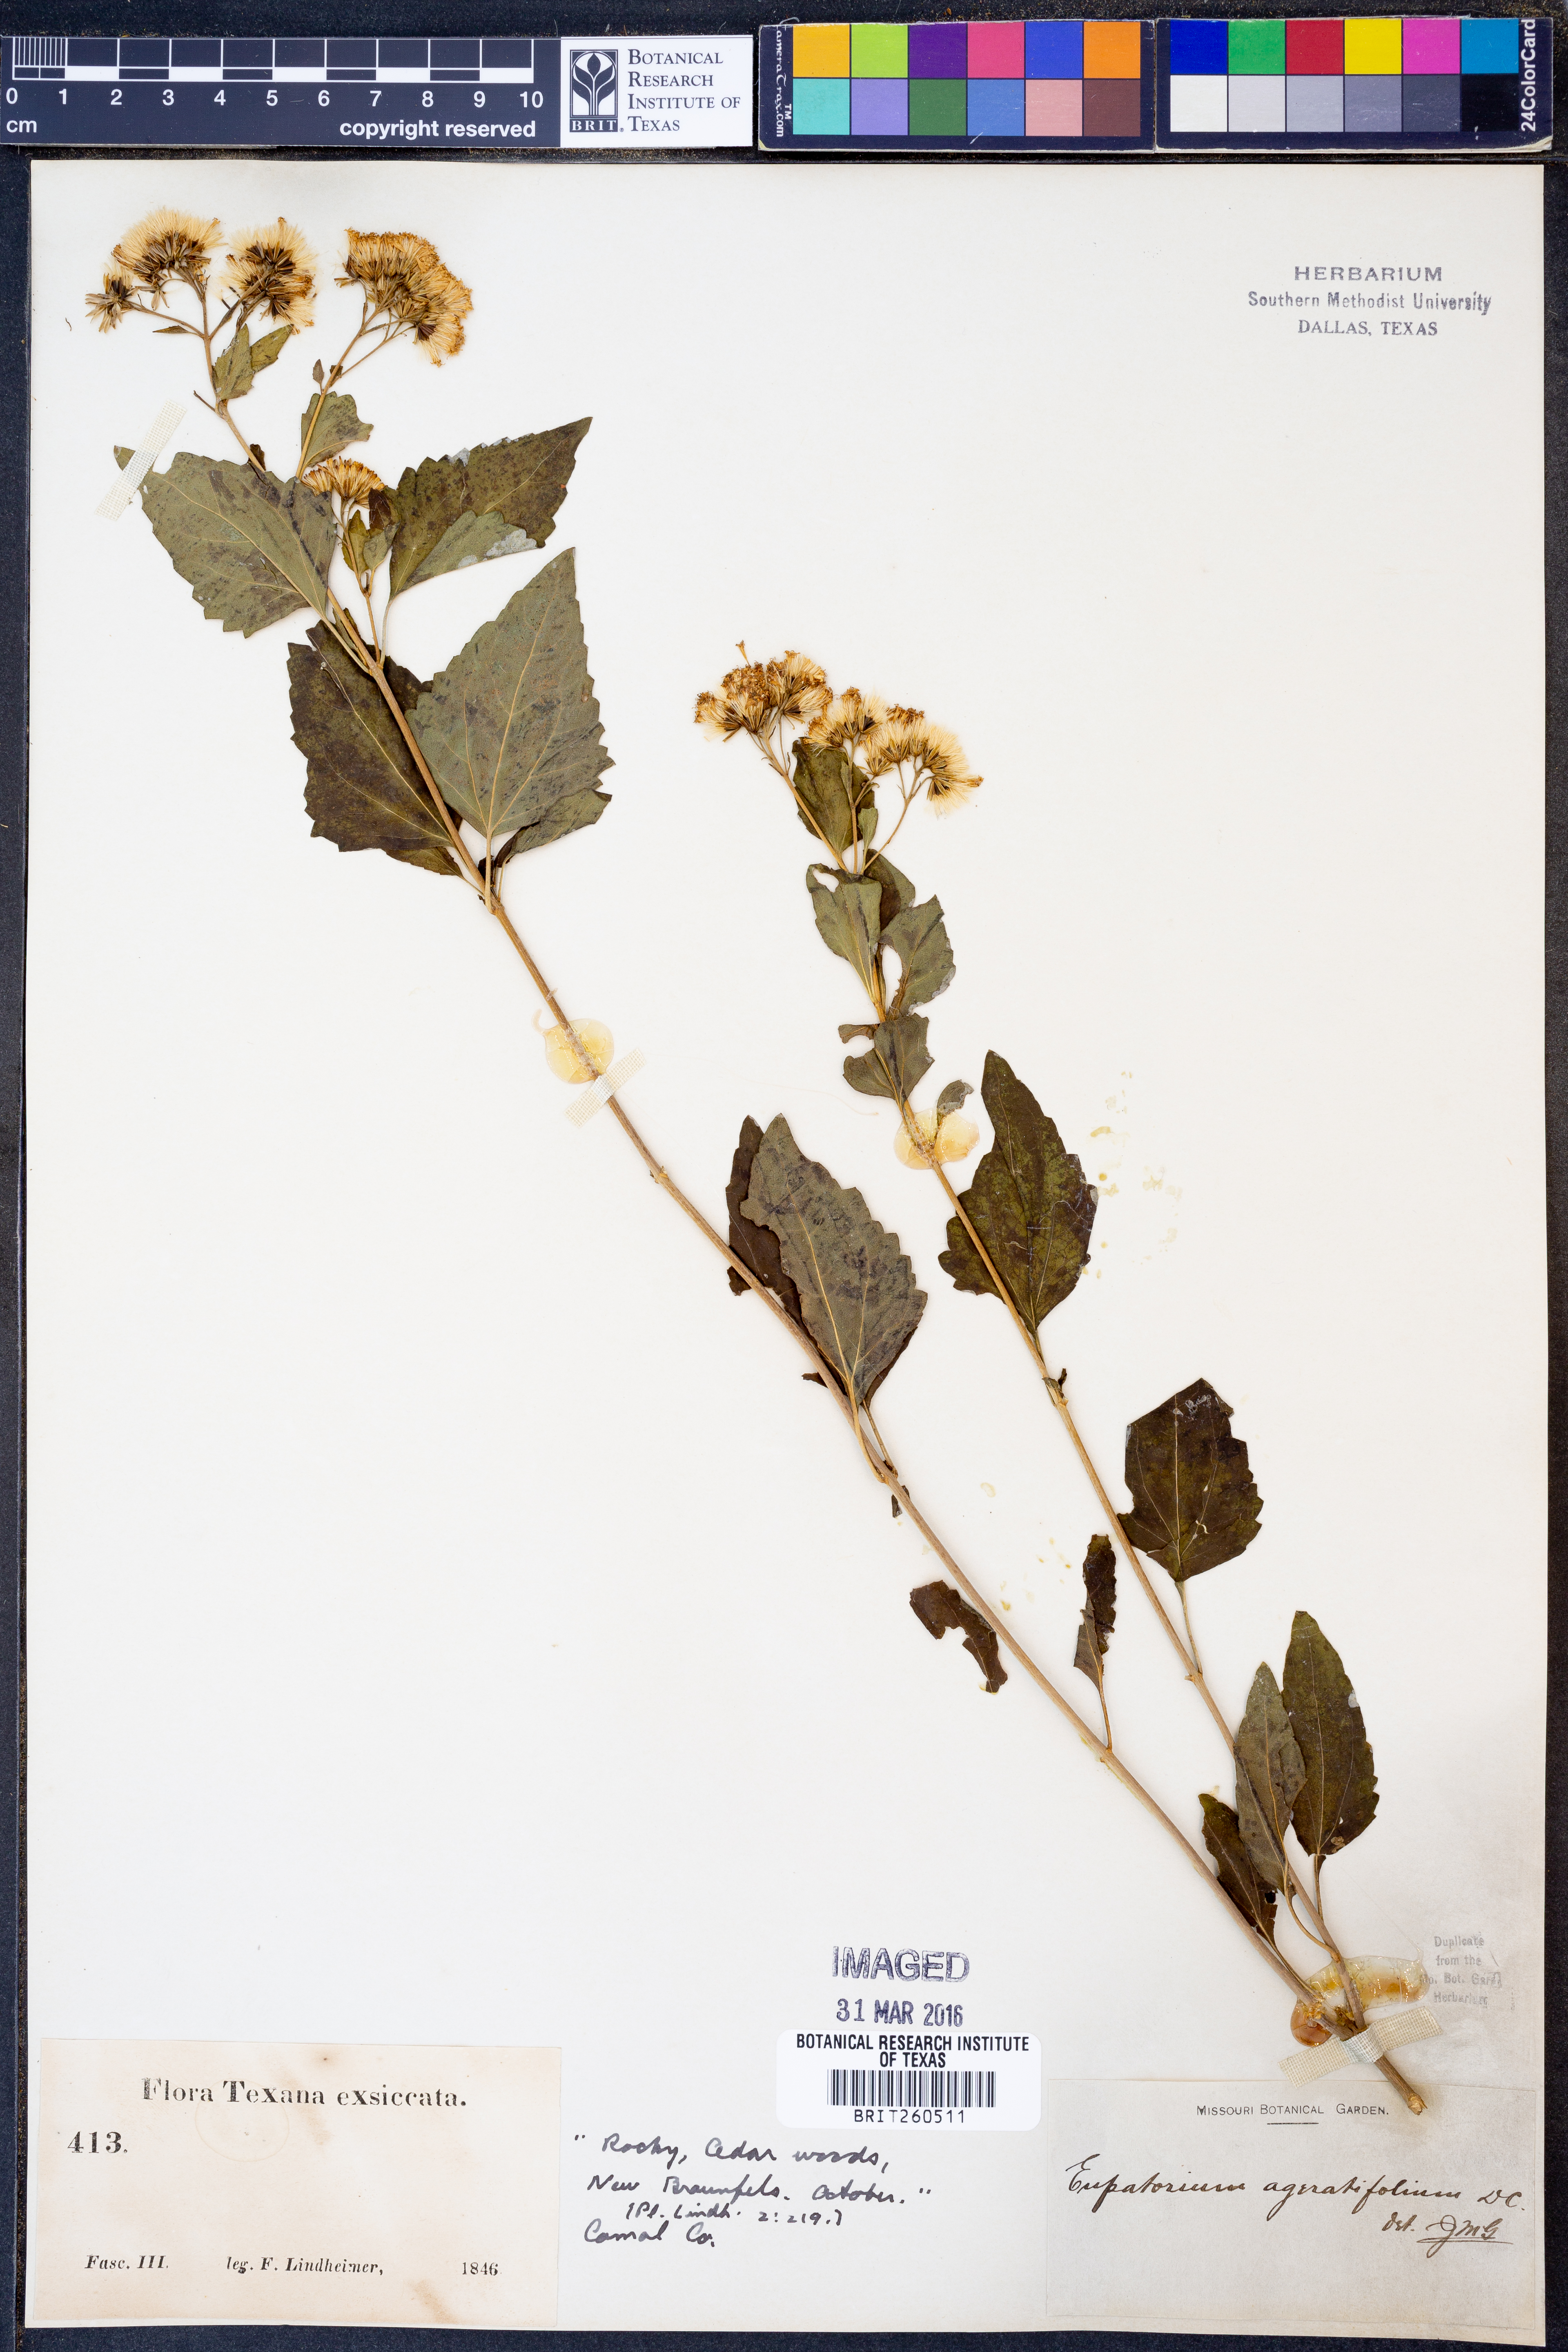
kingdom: Plantae
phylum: Tracheophyta
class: Magnoliopsida
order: Asterales
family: Asteraceae
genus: Ageratina
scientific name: Ageratina havanensis
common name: Havana snakeroot
